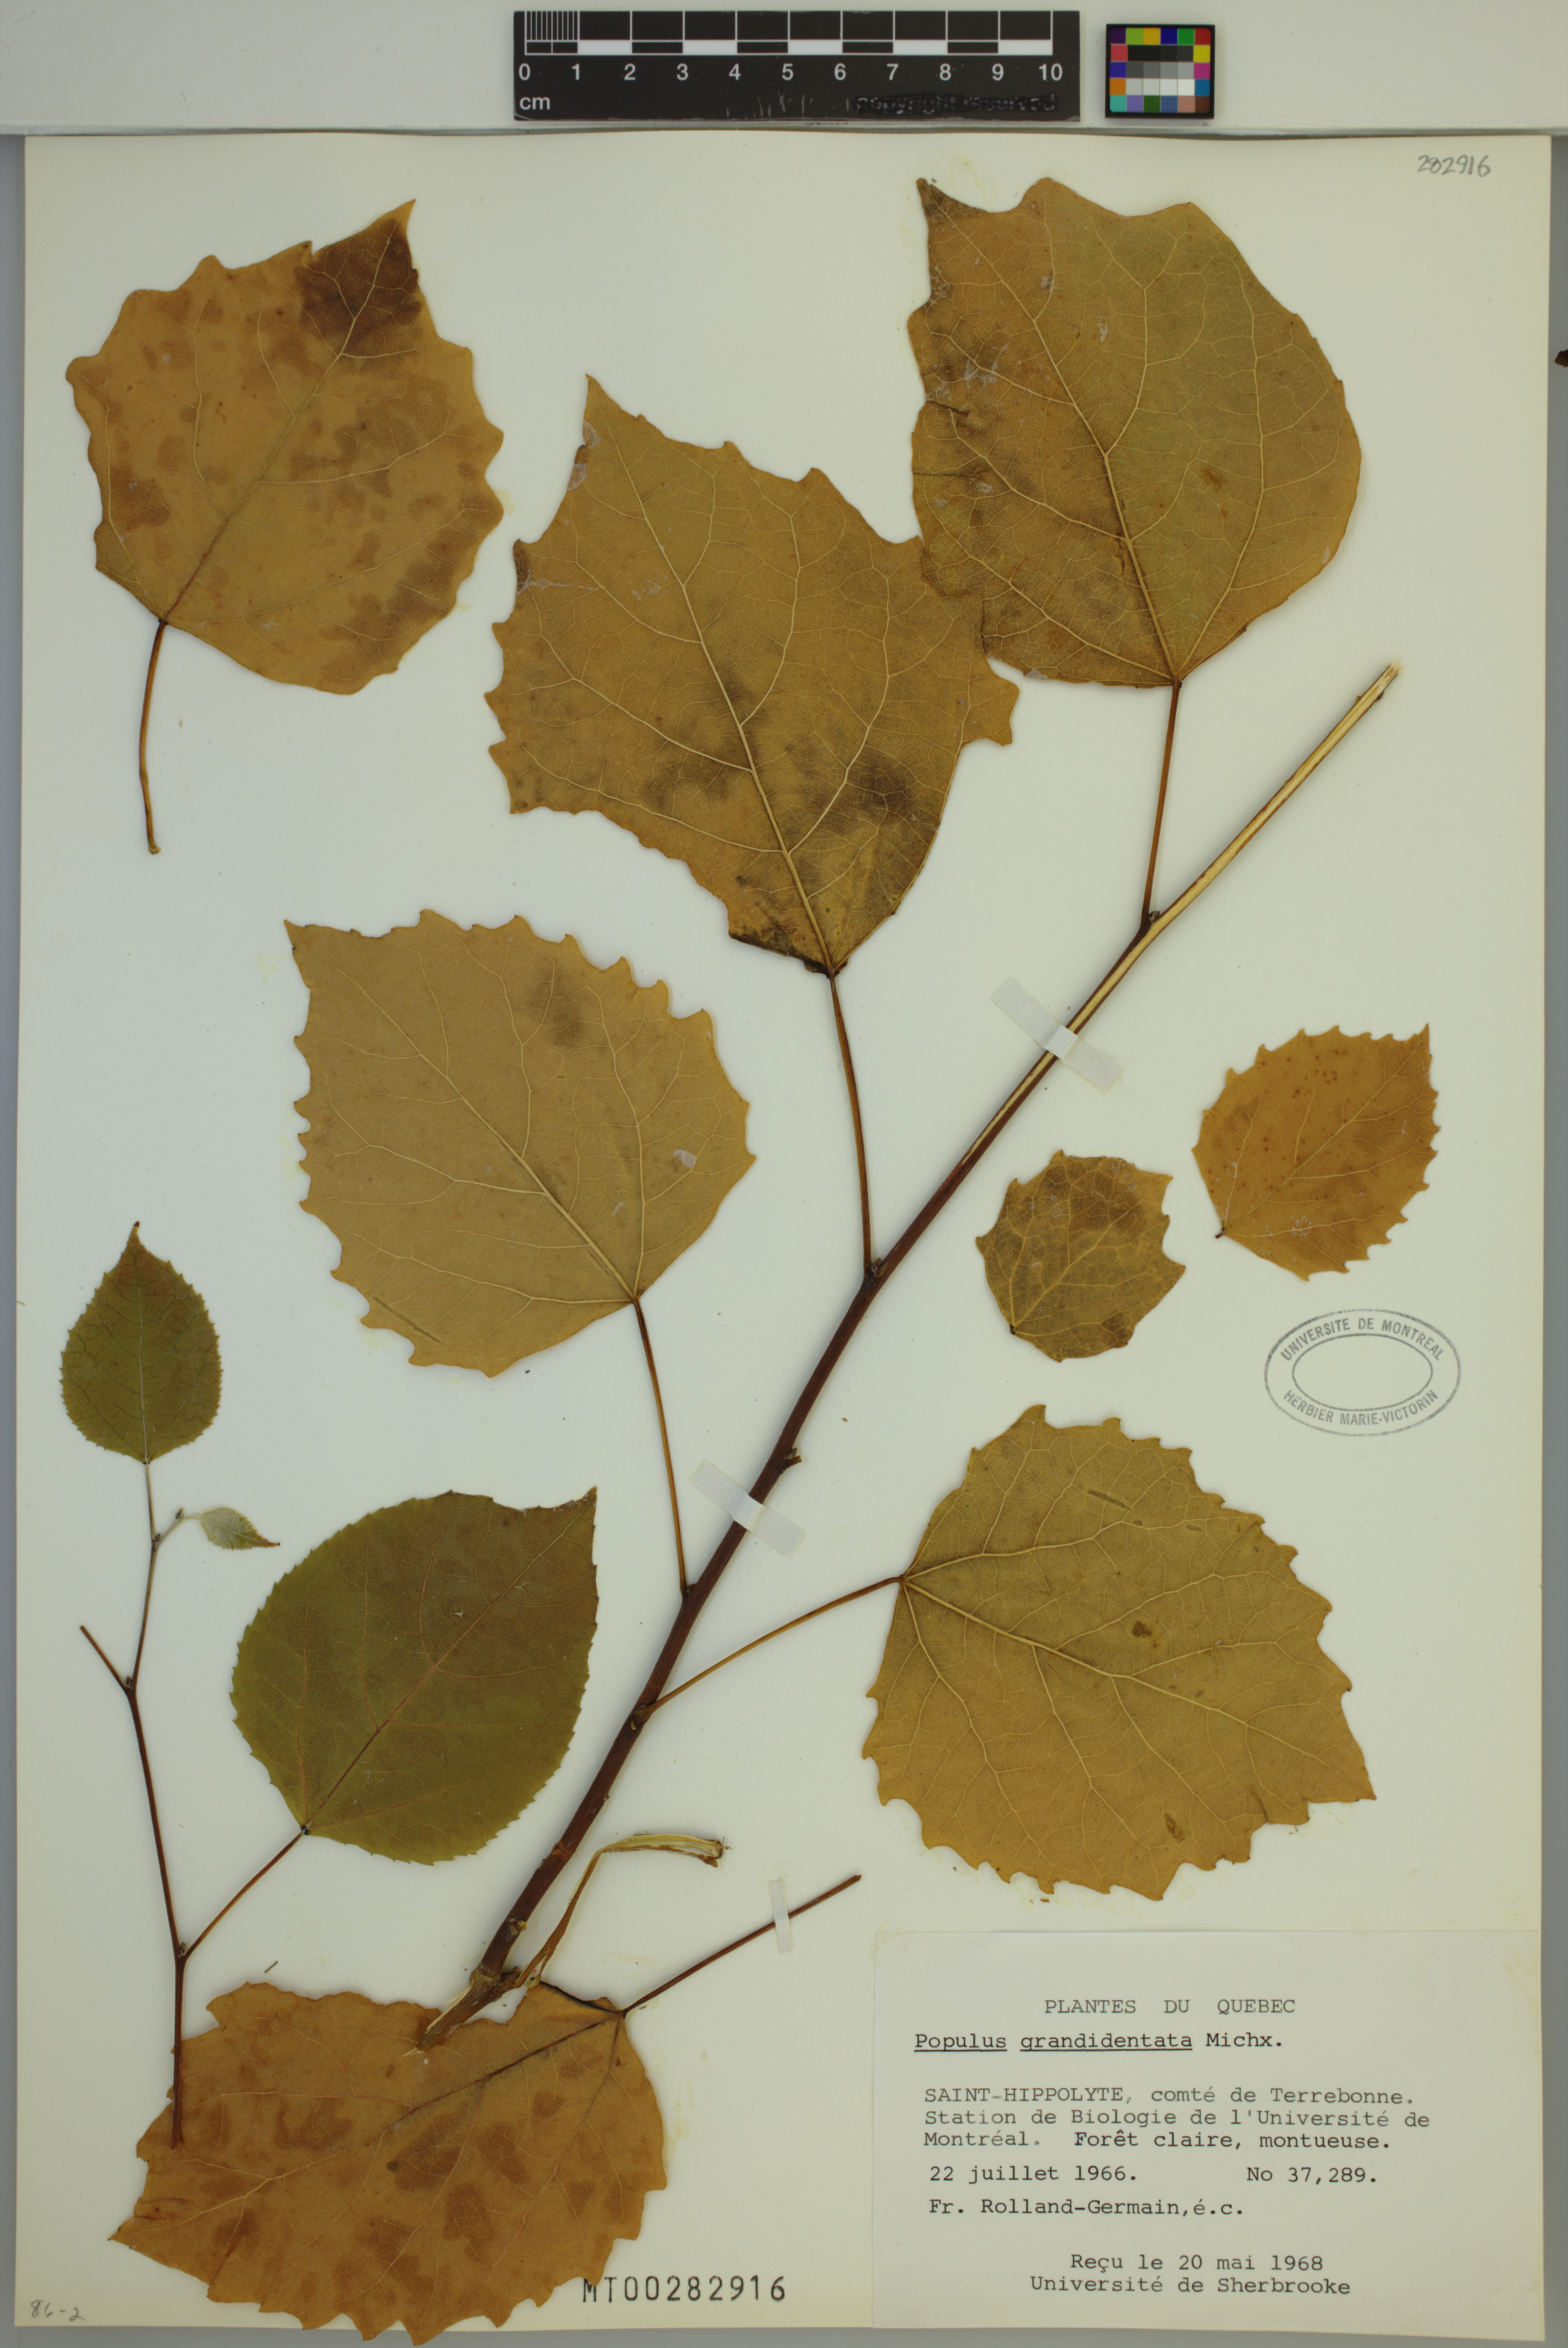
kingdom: Plantae
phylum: Tracheophyta
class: Magnoliopsida
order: Malpighiales
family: Salicaceae
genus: Populus
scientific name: Populus grandidentata
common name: Bigtooth aspen
